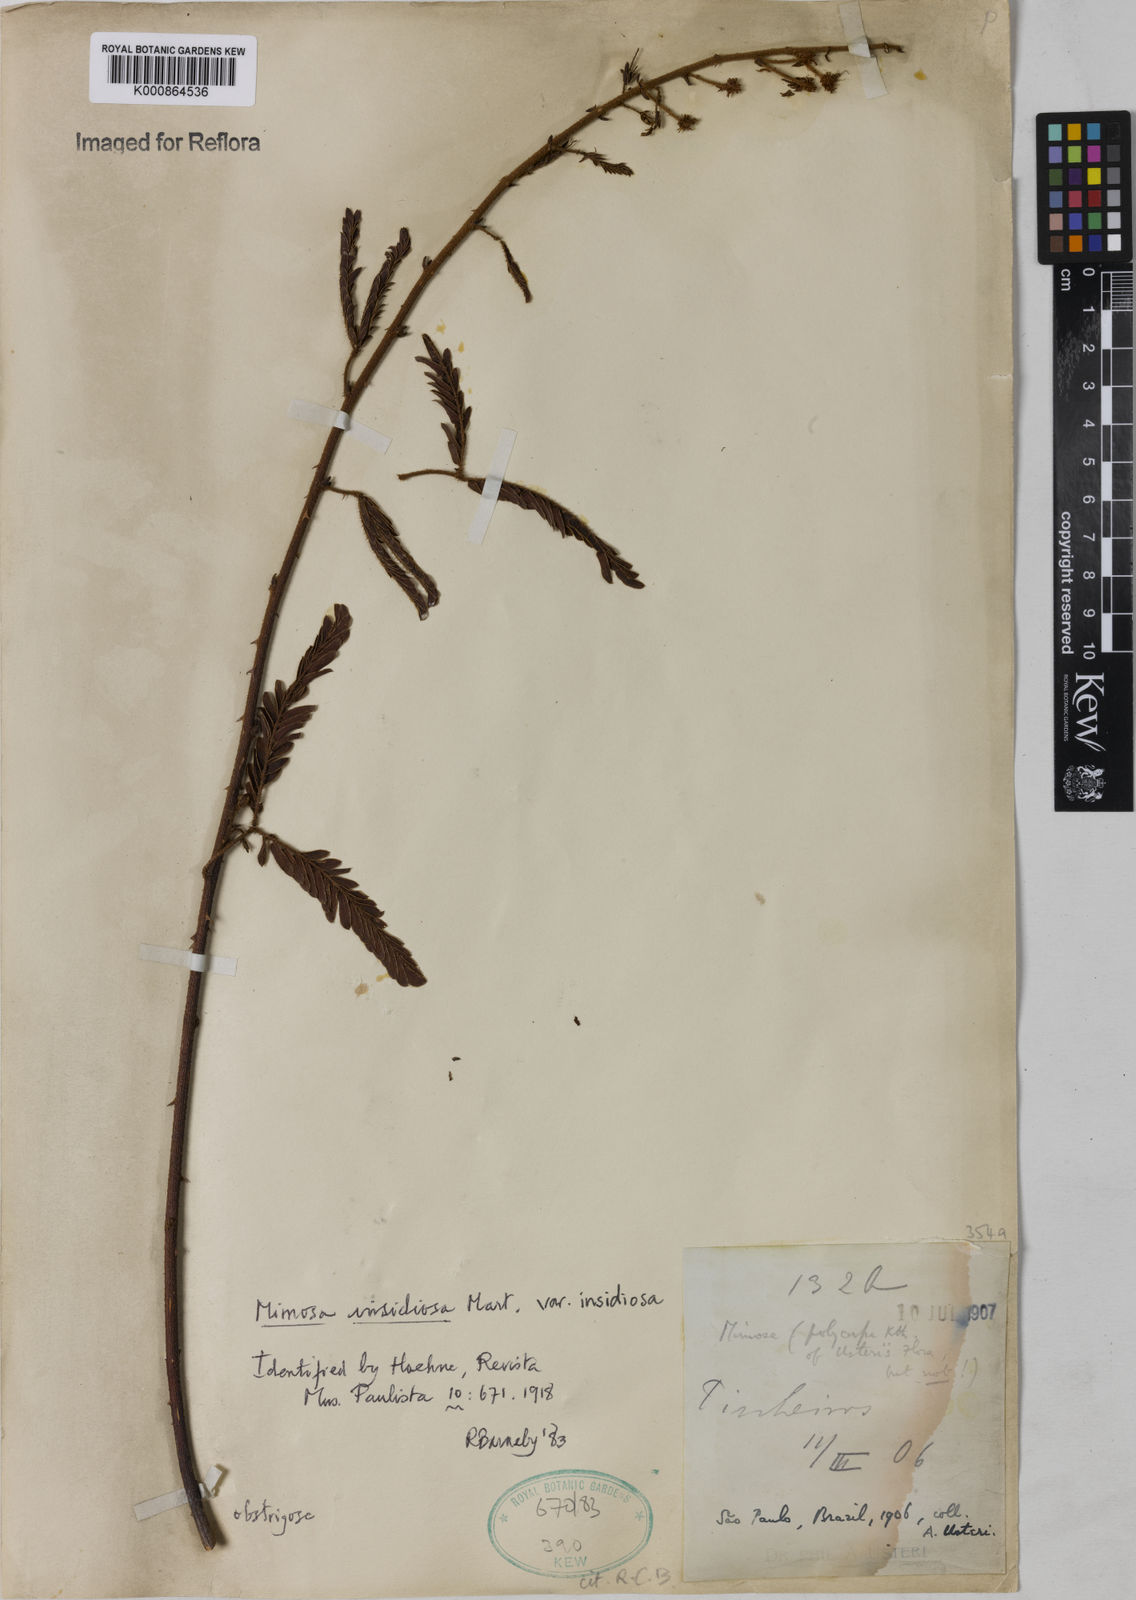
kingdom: Plantae
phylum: Tracheophyta
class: Magnoliopsida
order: Fabales
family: Fabaceae
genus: Mimosa
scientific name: Mimosa insidiosa
